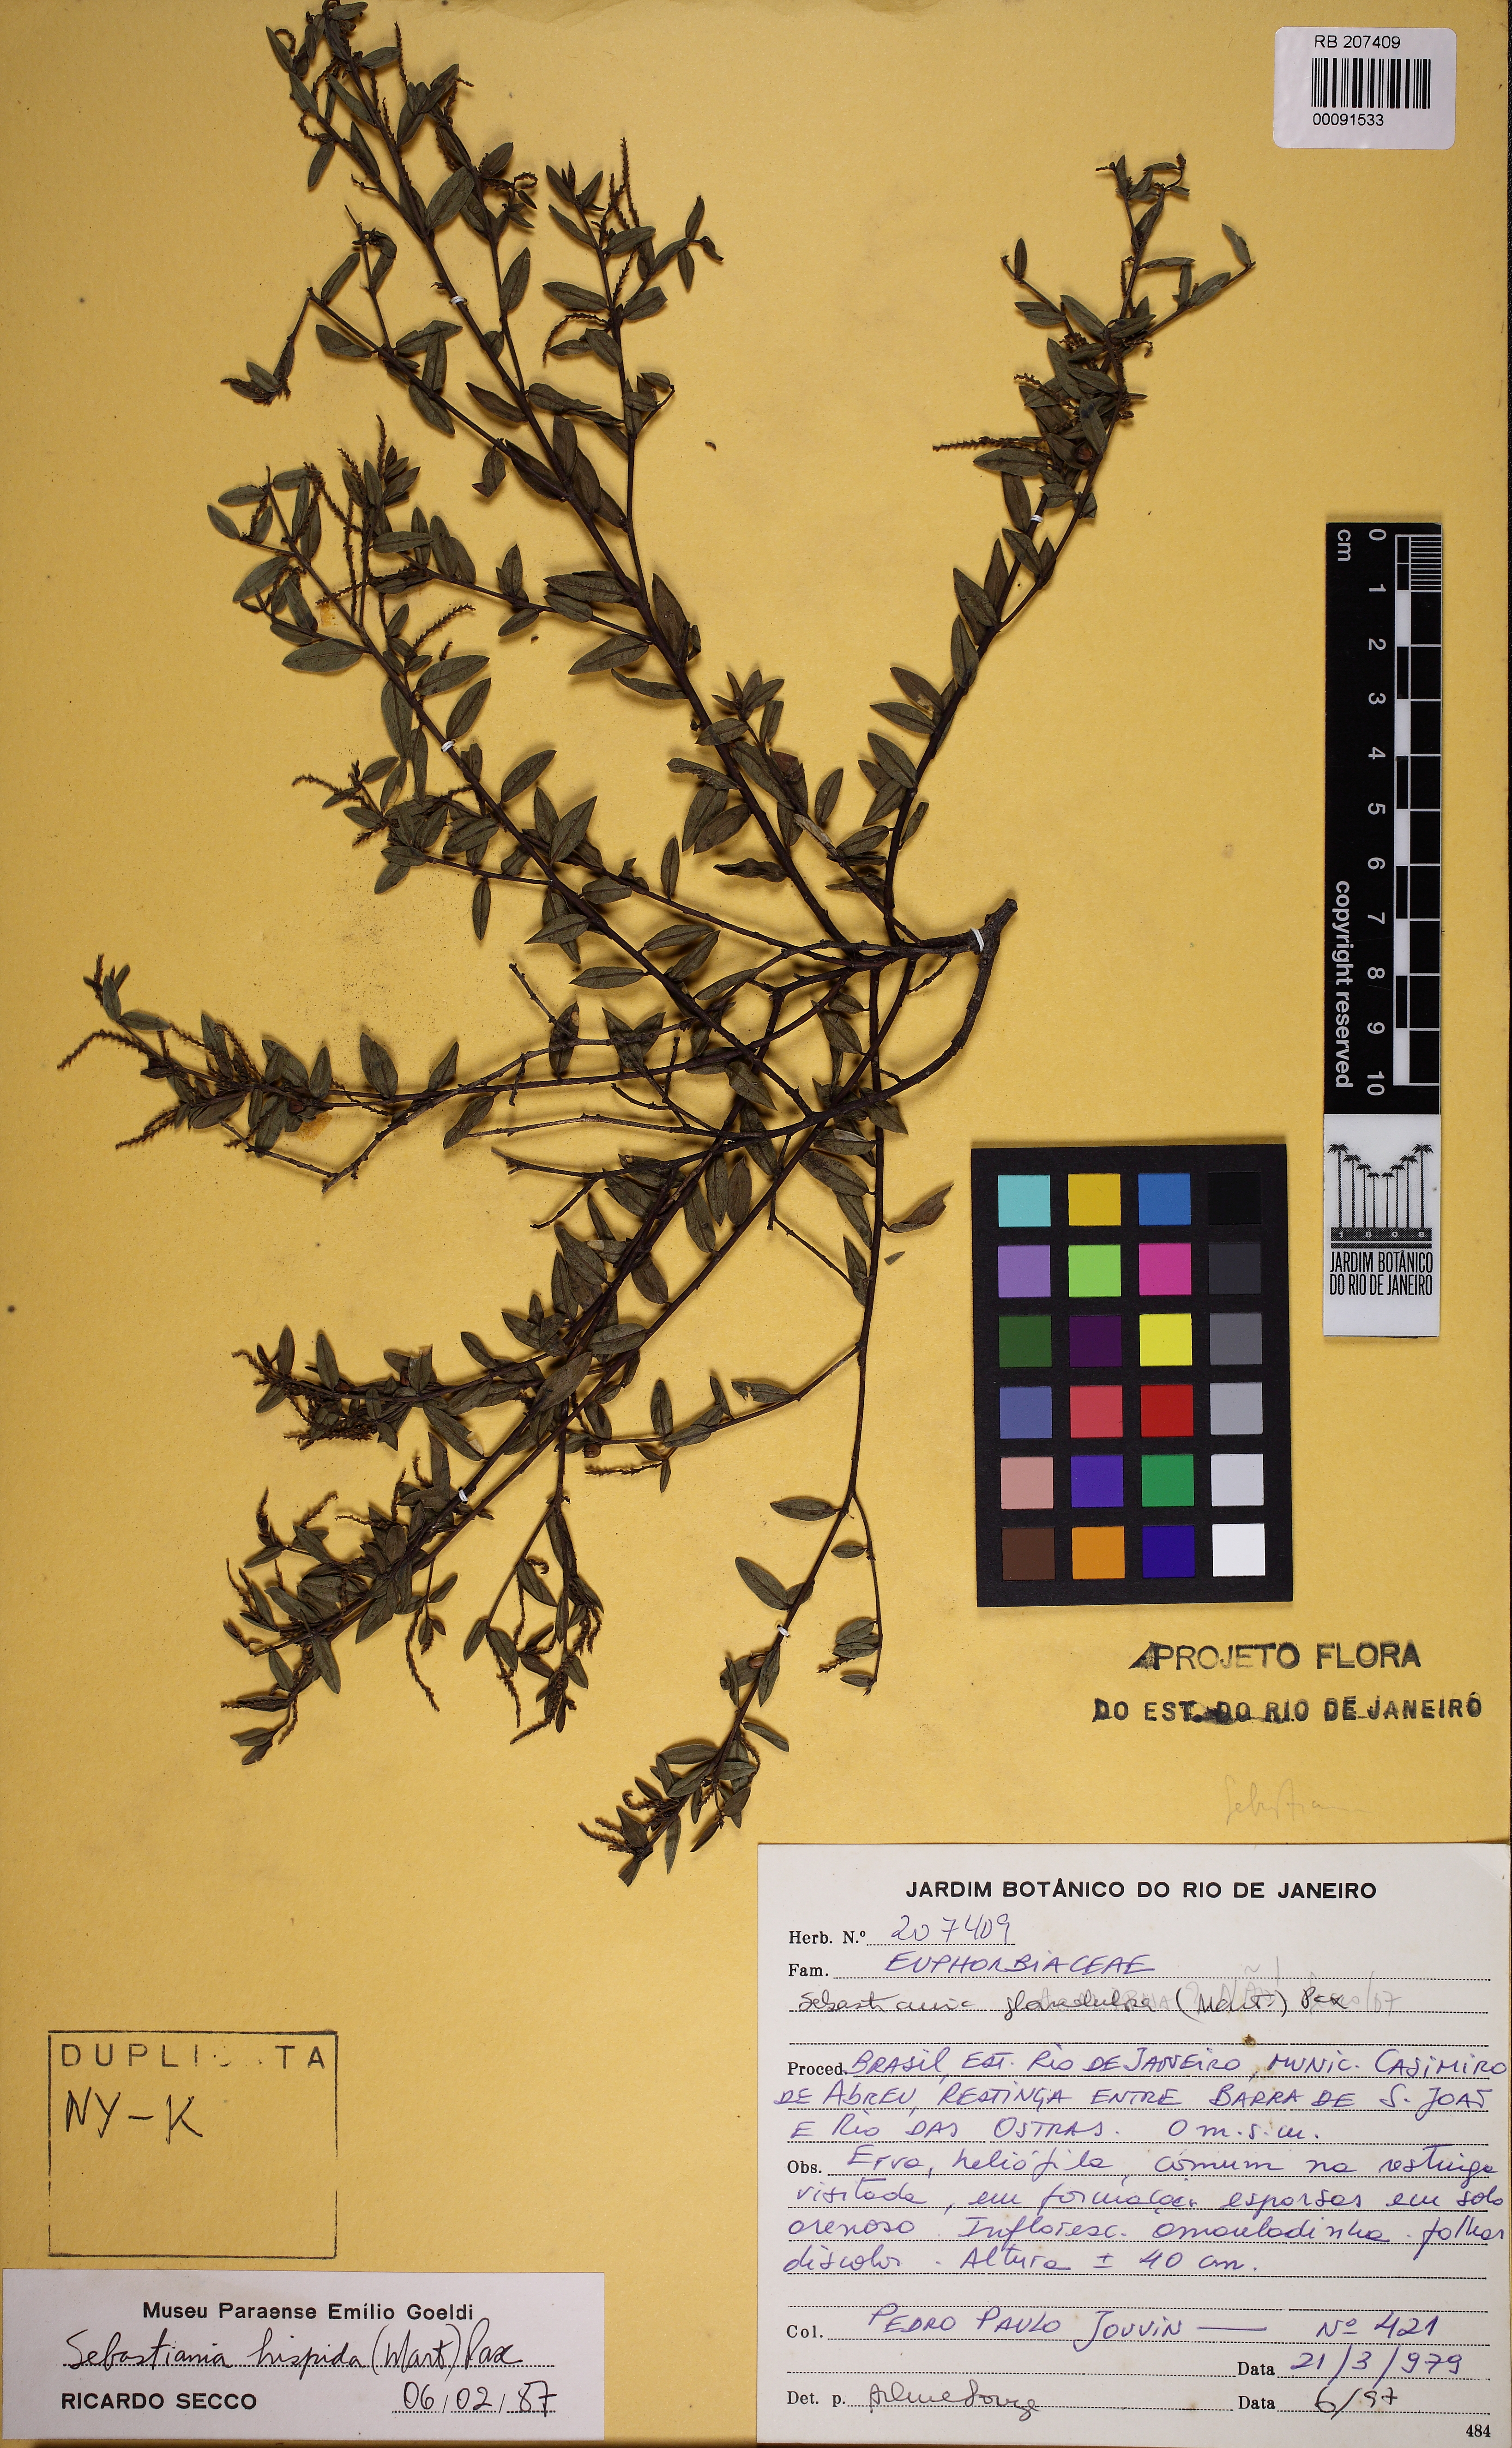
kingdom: Plantae
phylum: Tracheophyta
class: Magnoliopsida
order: Malpighiales
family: Euphorbiaceae
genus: Microstachys
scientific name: Microstachys hispida
